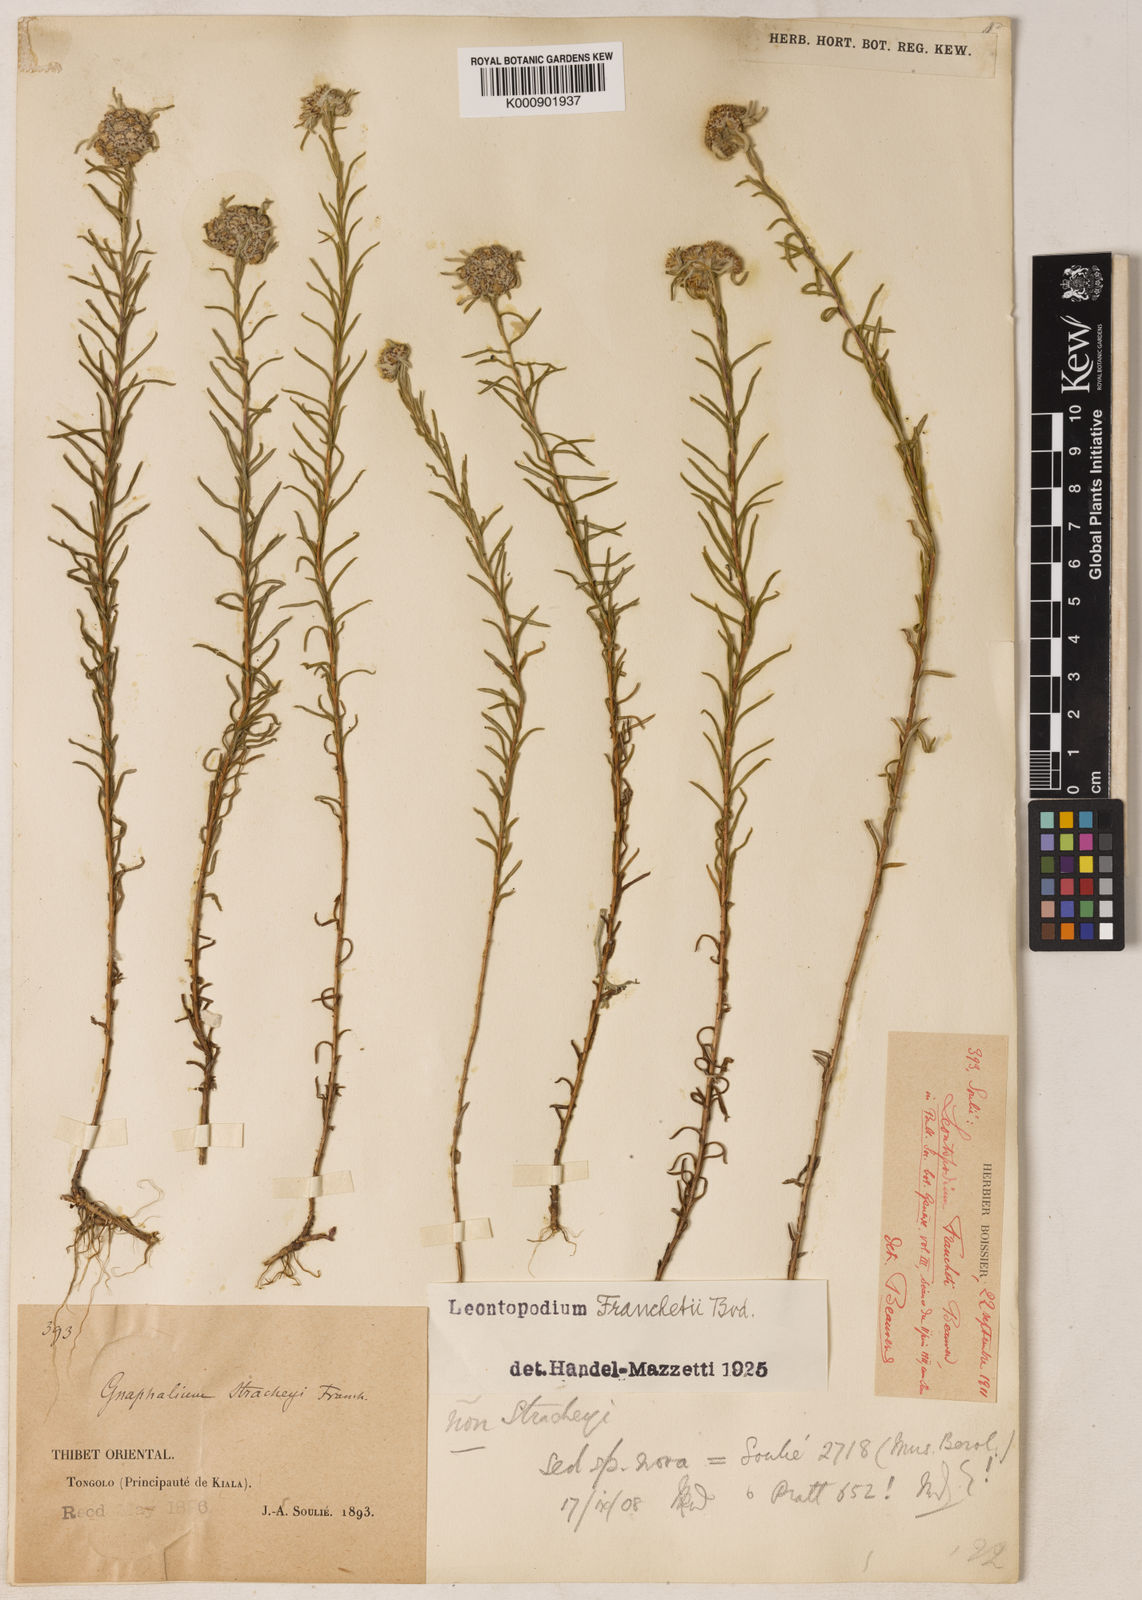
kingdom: Plantae
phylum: Tracheophyta
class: Magnoliopsida
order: Asterales
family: Asteraceae
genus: Leontopodium
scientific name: Leontopodium franchetii
